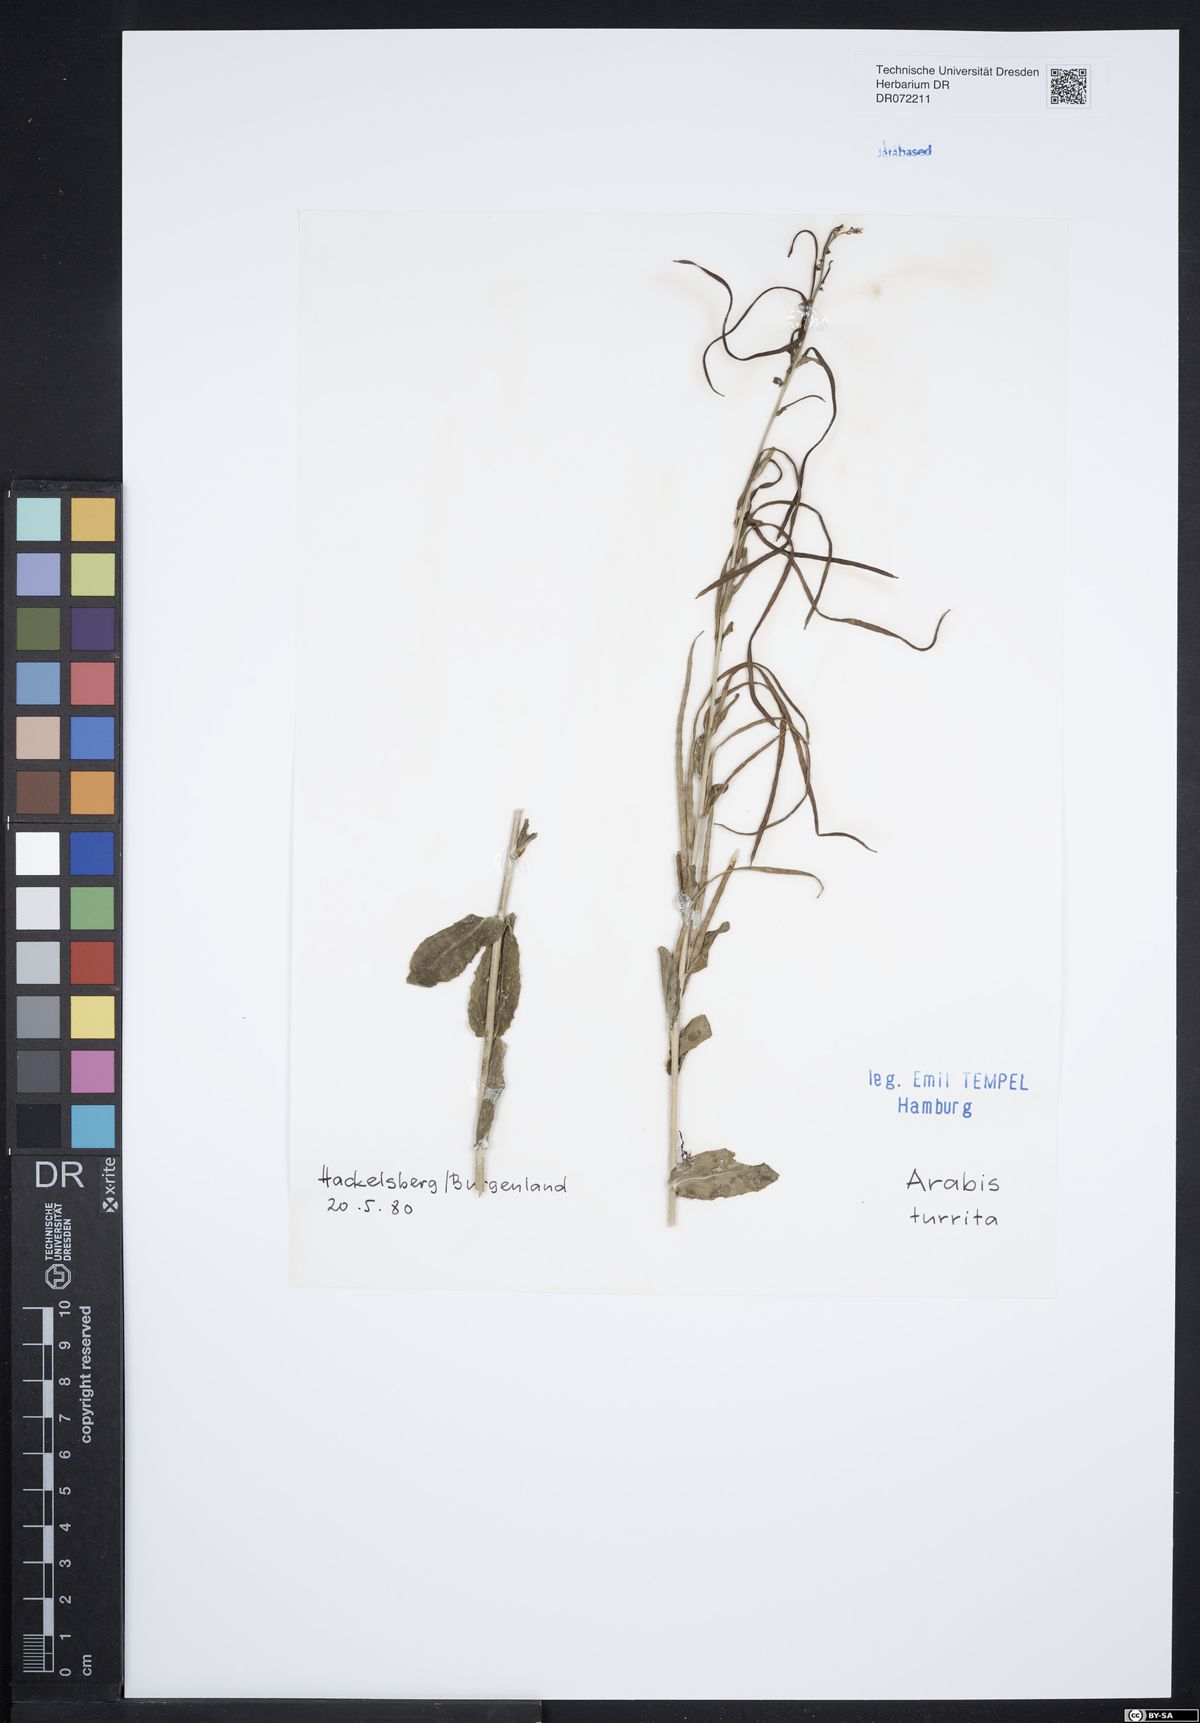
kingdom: Plantae
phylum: Tracheophyta
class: Magnoliopsida
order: Brassicales
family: Brassicaceae
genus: Pseudoturritis
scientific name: Pseudoturritis turrita
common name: Tower cress
